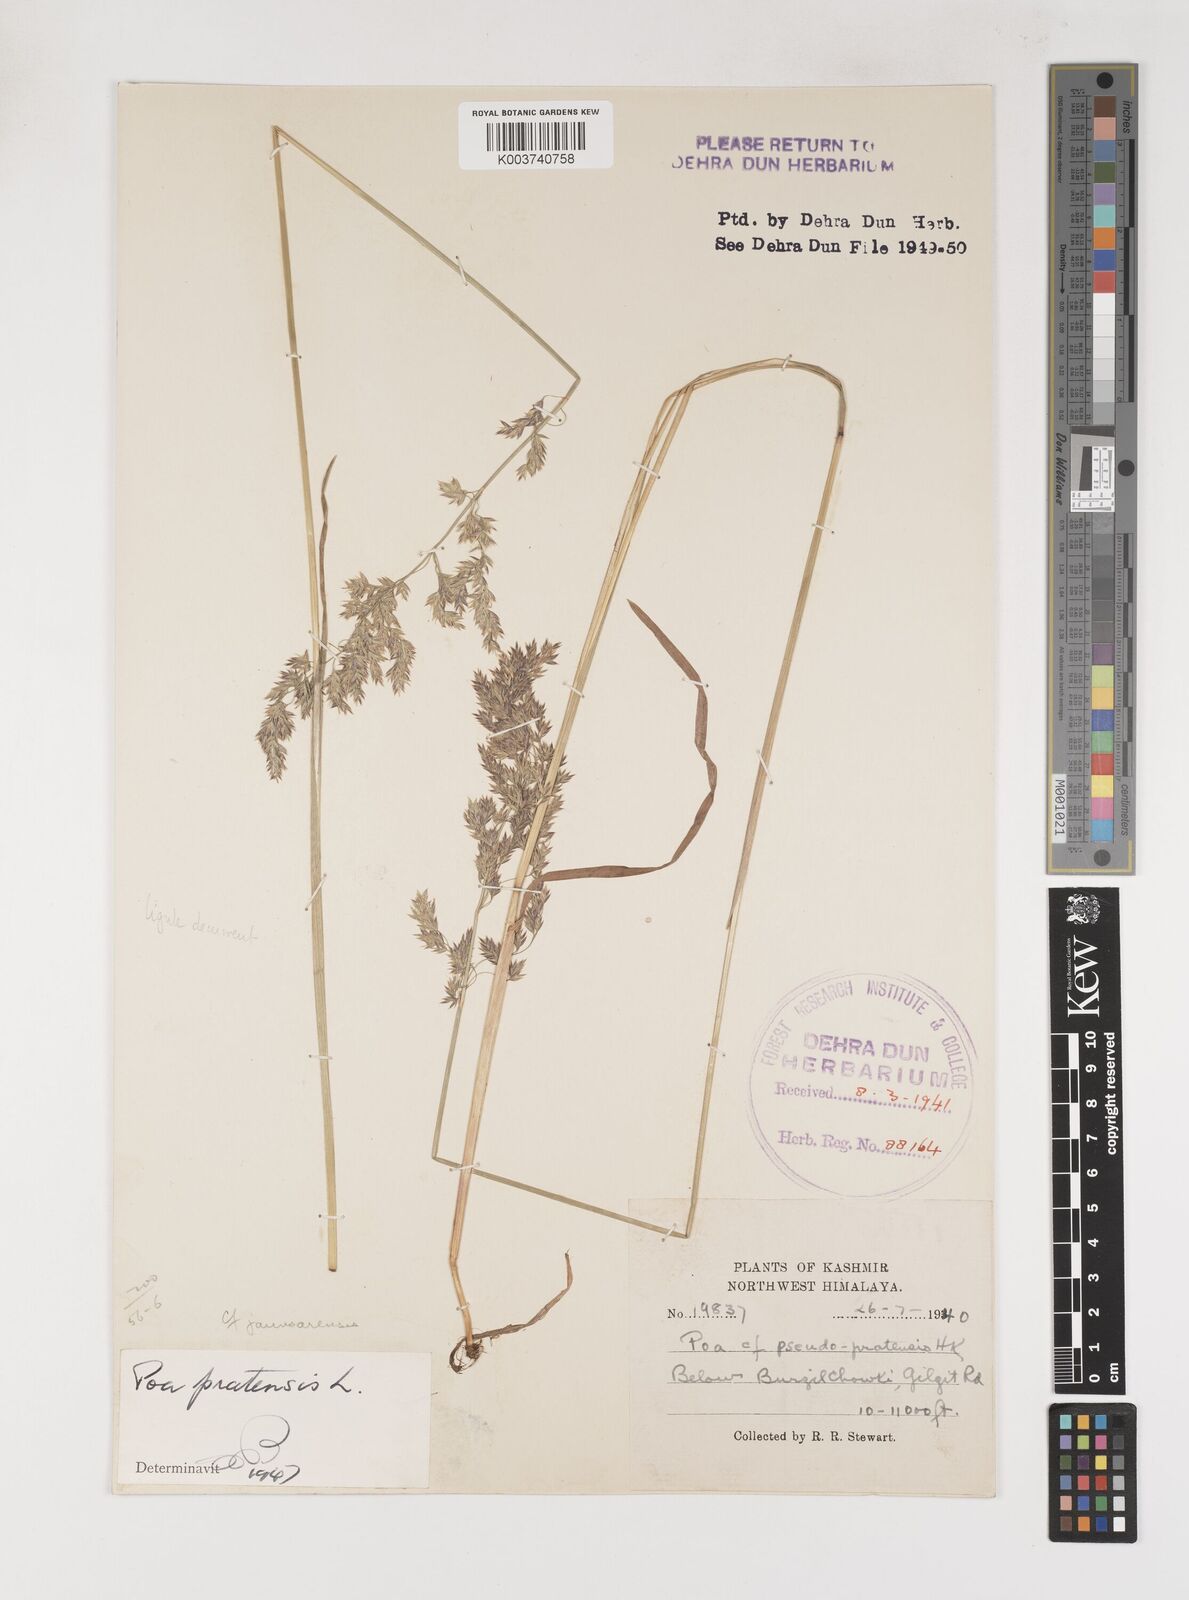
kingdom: Plantae
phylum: Tracheophyta
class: Liliopsida
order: Poales
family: Poaceae
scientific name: Poaceae
